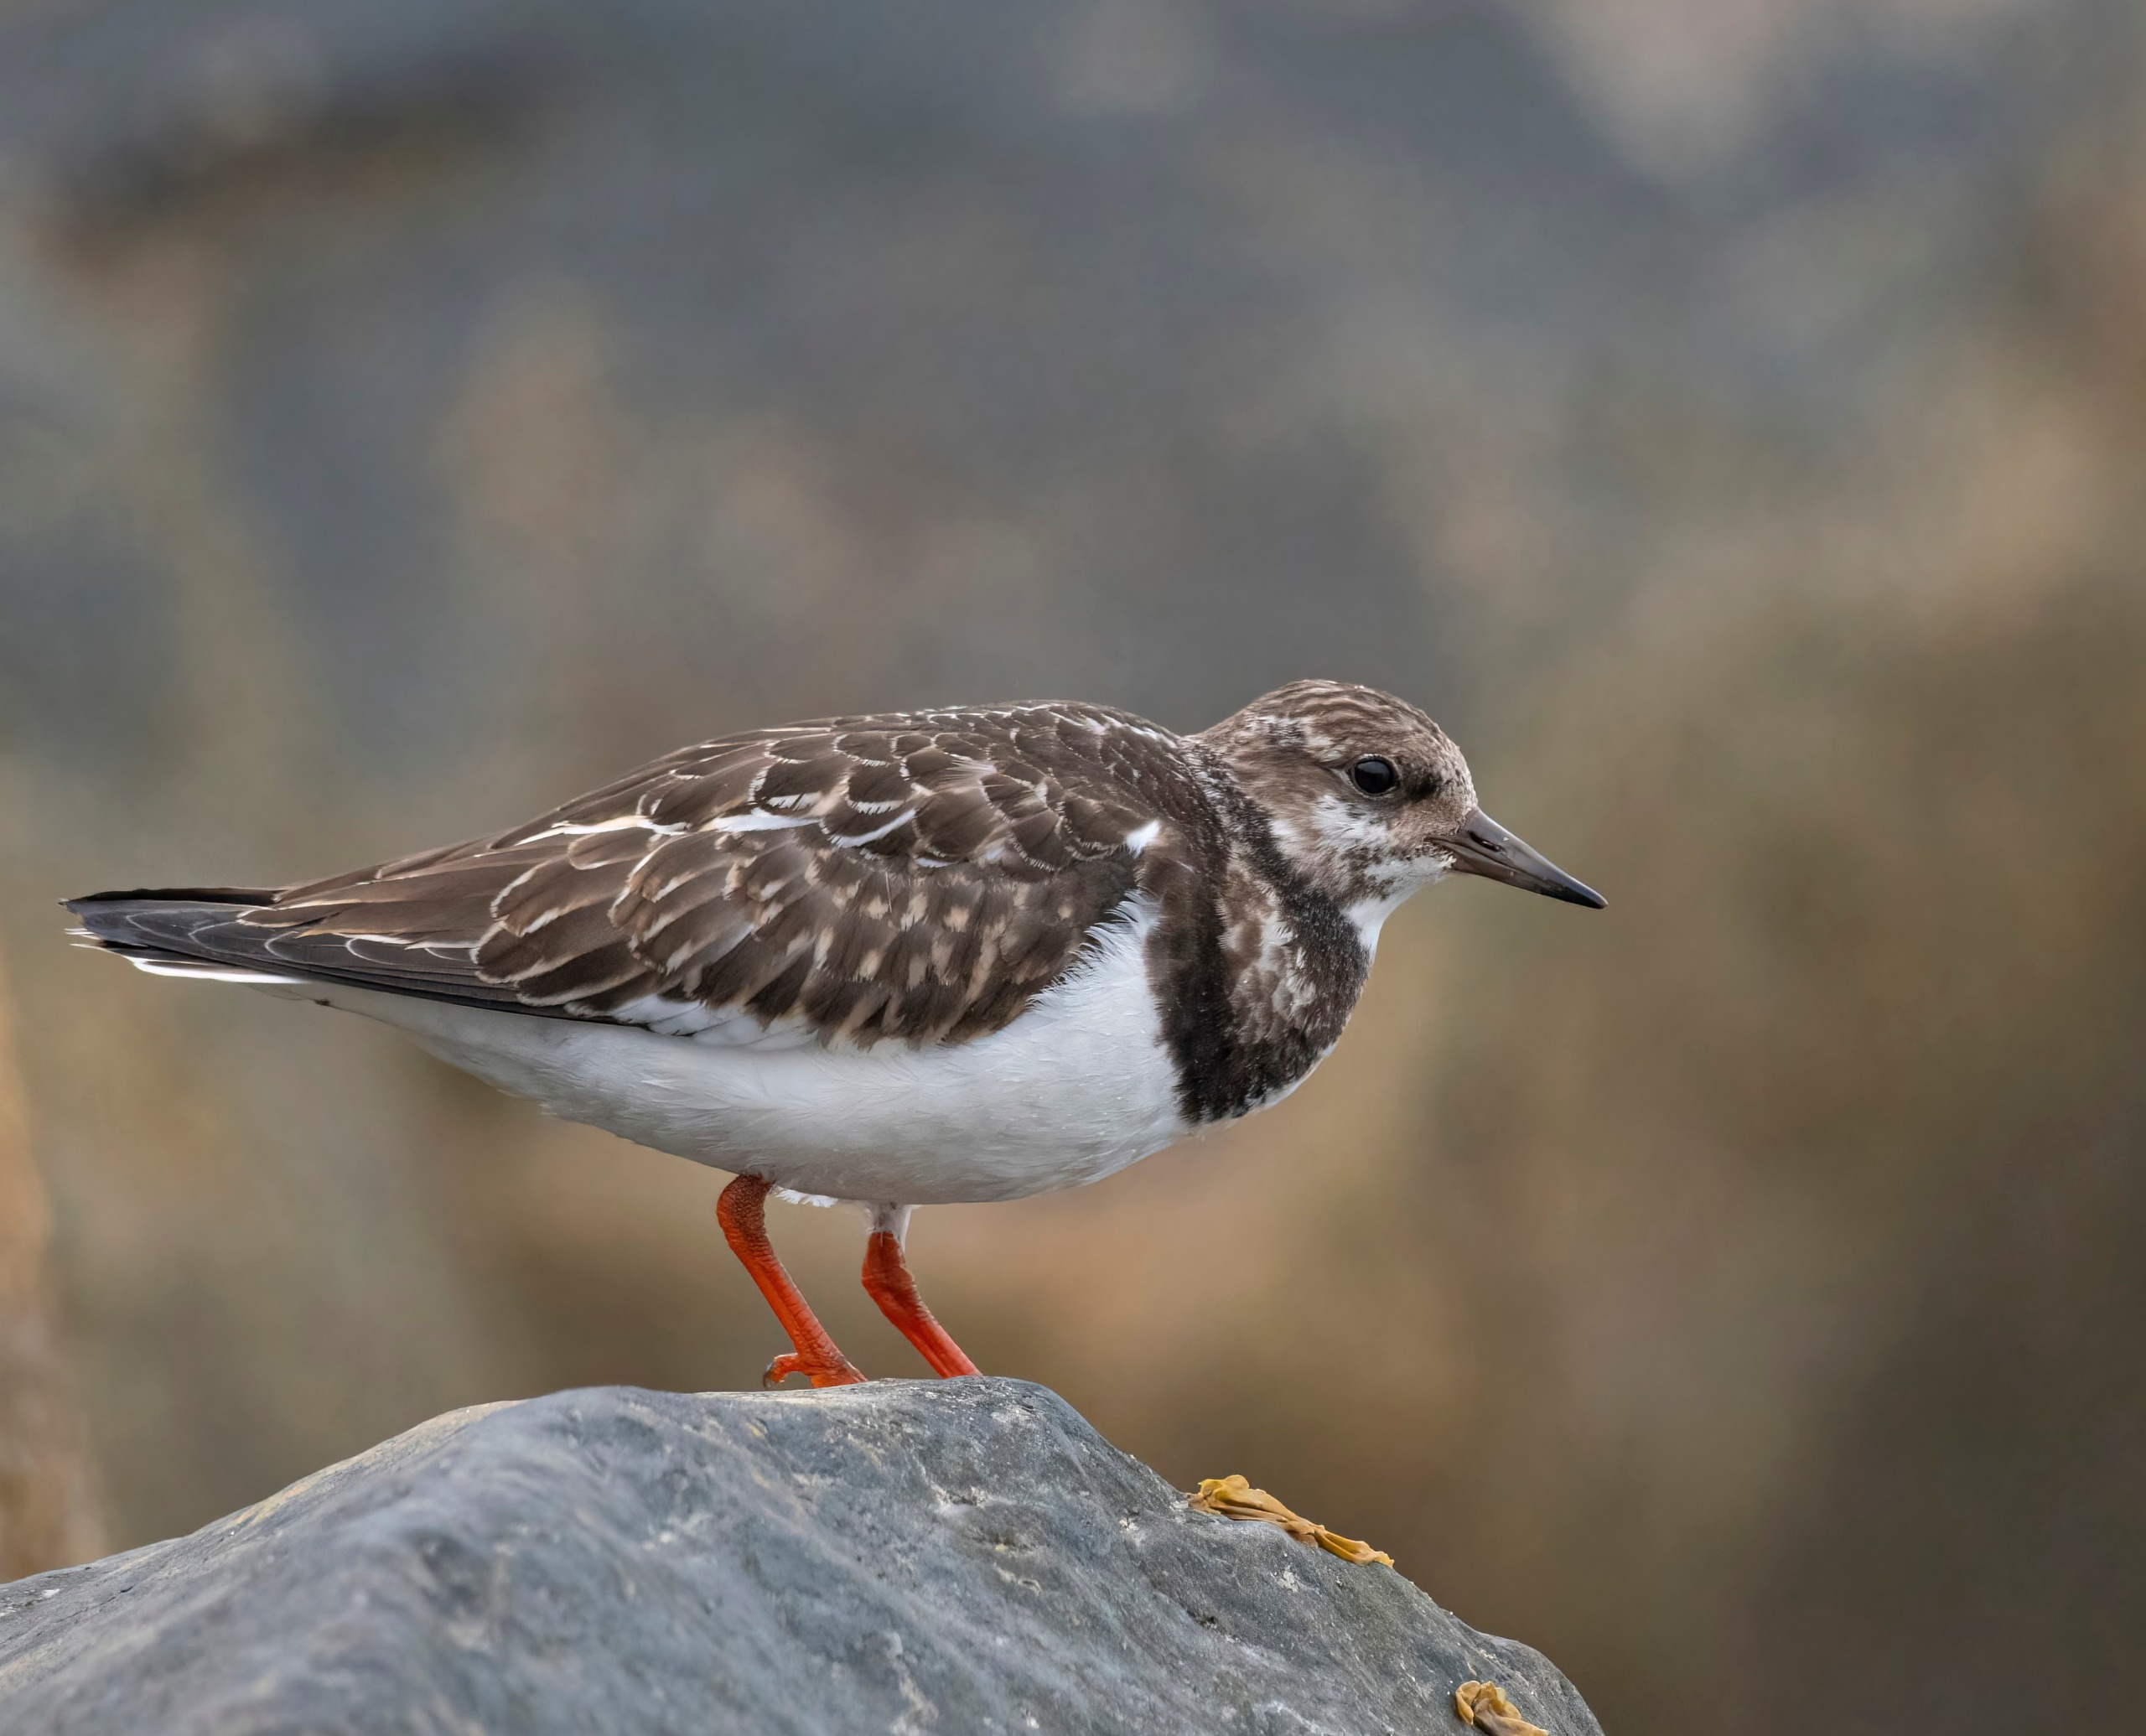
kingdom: Animalia
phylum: Chordata
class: Aves
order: Charadriiformes
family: Scolopacidae
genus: Arenaria
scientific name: Arenaria interpres
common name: Stenvender
